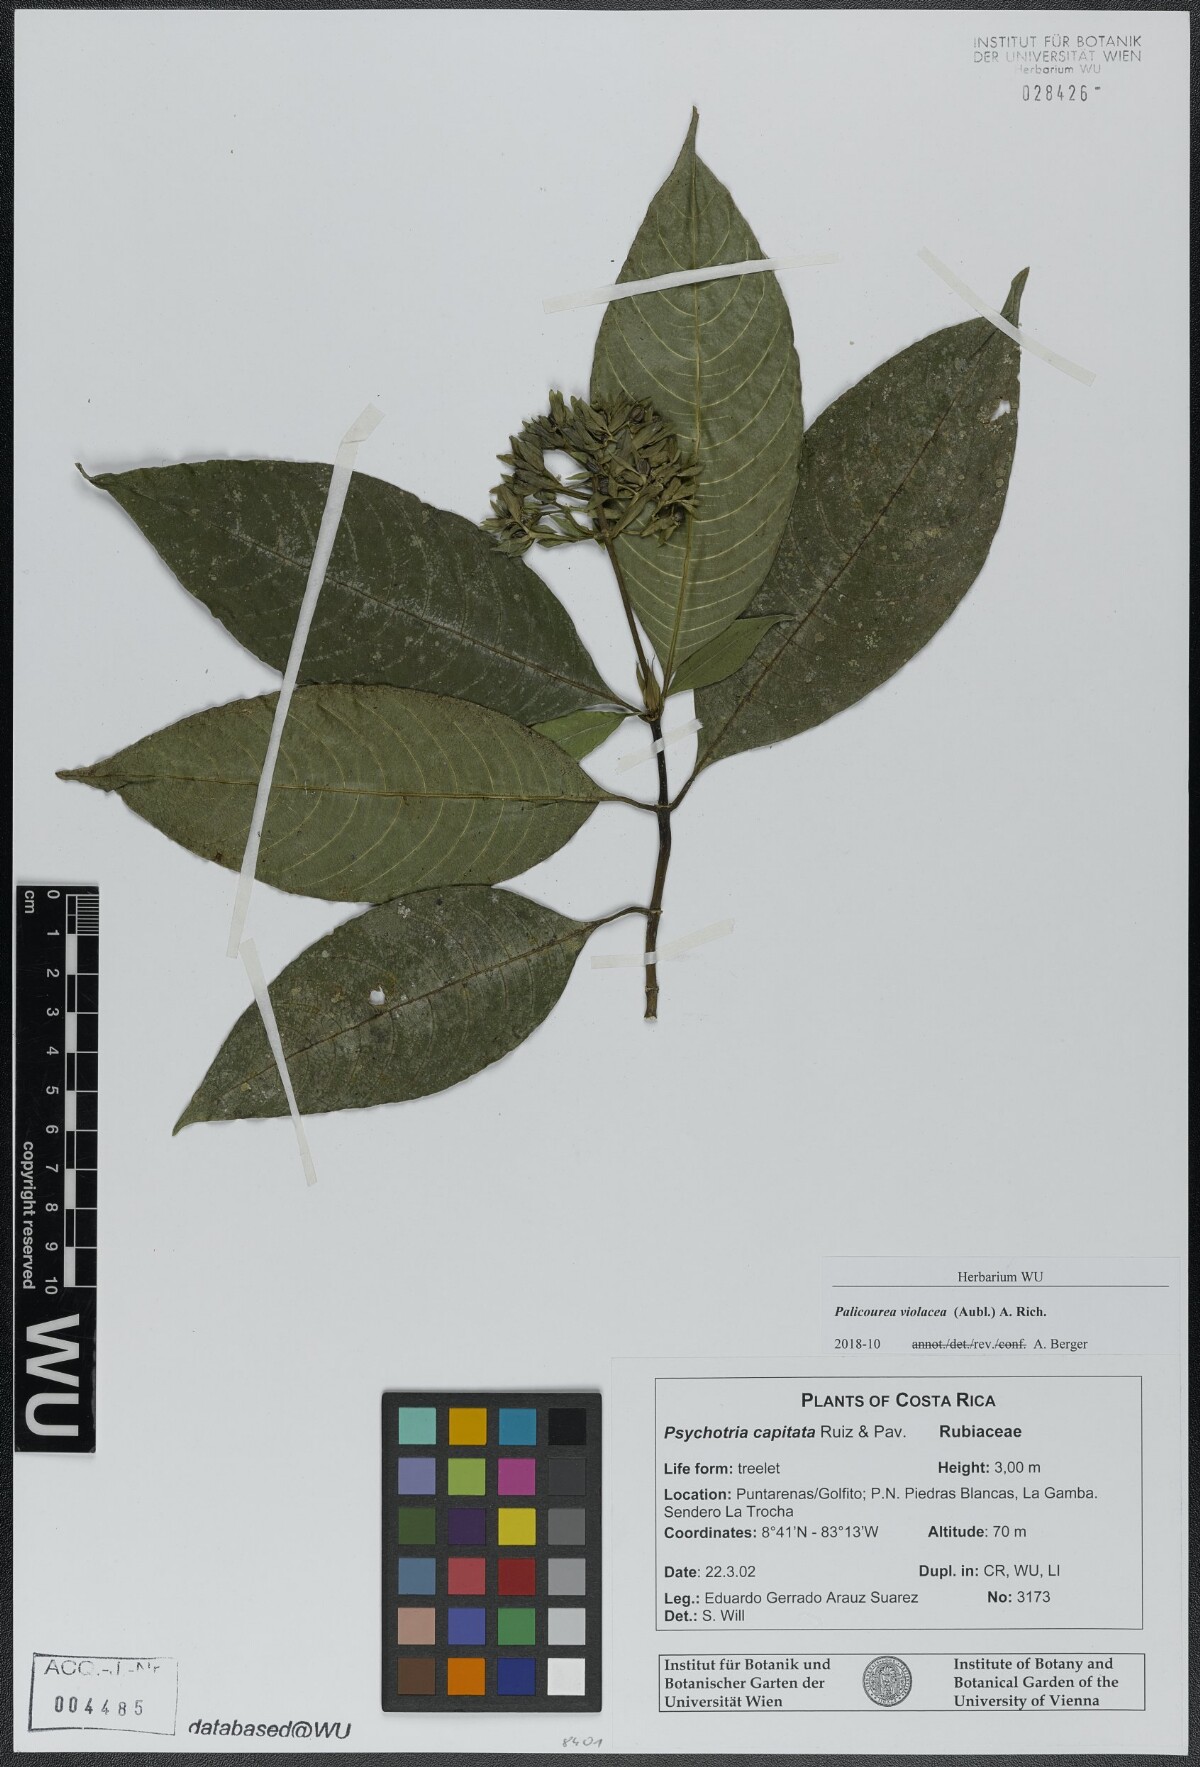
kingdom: Plantae
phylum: Tracheophyta
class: Magnoliopsida
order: Gentianales
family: Rubiaceae
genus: Palicourea
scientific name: Palicourea violacea
